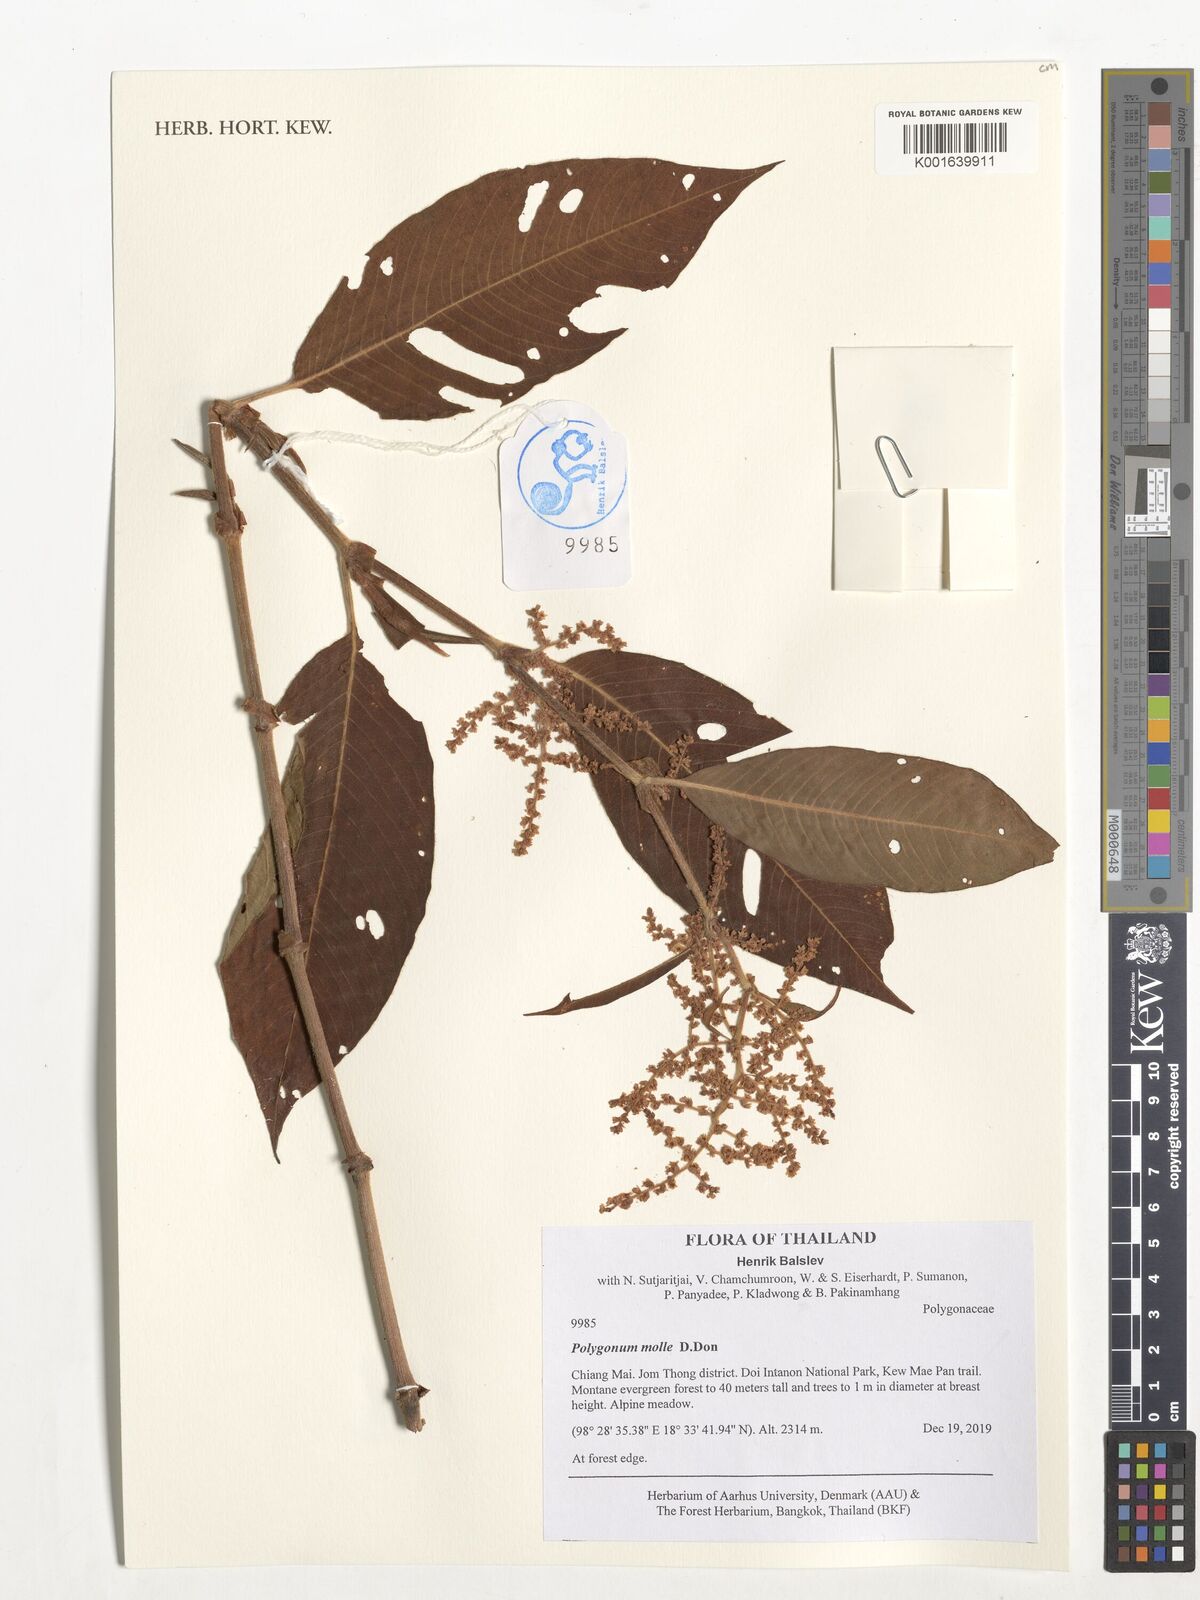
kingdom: Plantae
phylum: Tracheophyta
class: Magnoliopsida
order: Caryophyllales
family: Polygonaceae
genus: Koenigia
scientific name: Koenigia mollis
